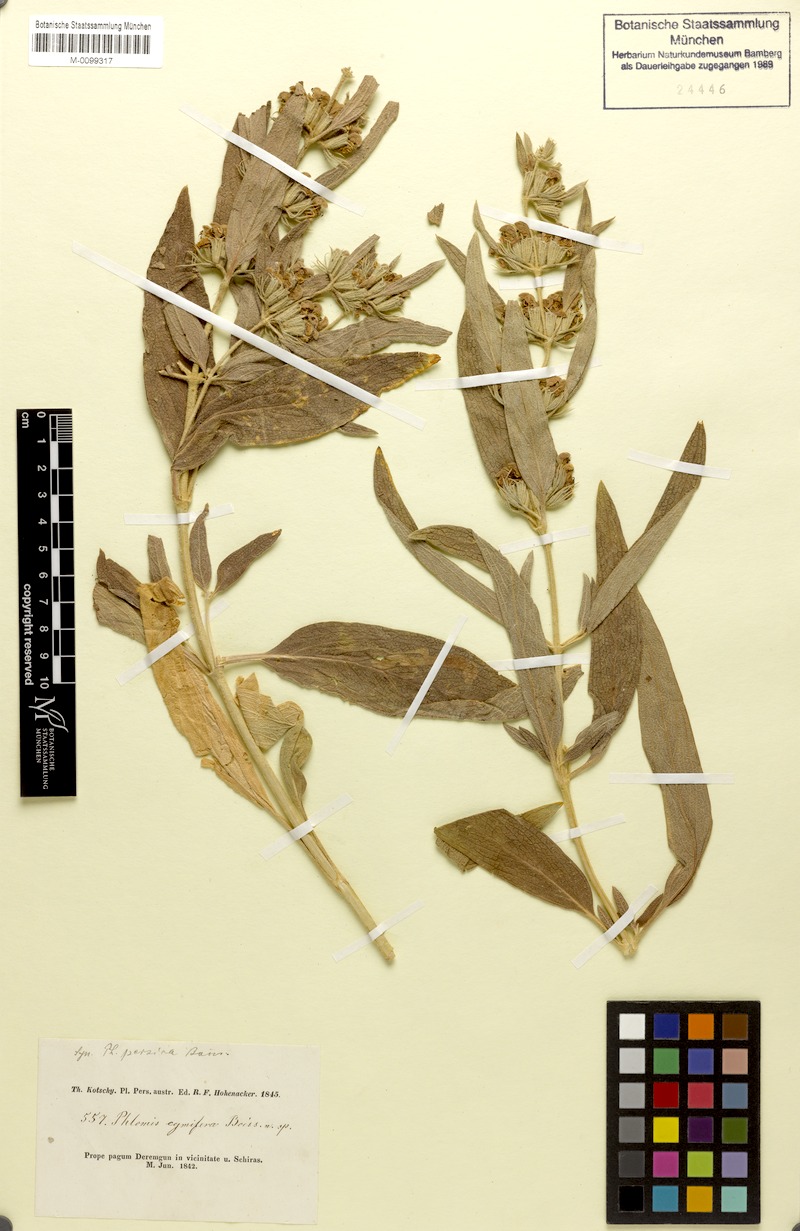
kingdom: Plantae
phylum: Tracheophyta
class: Magnoliopsida
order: Lamiales
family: Lamiaceae
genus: Phlomis
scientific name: Phlomis persica
